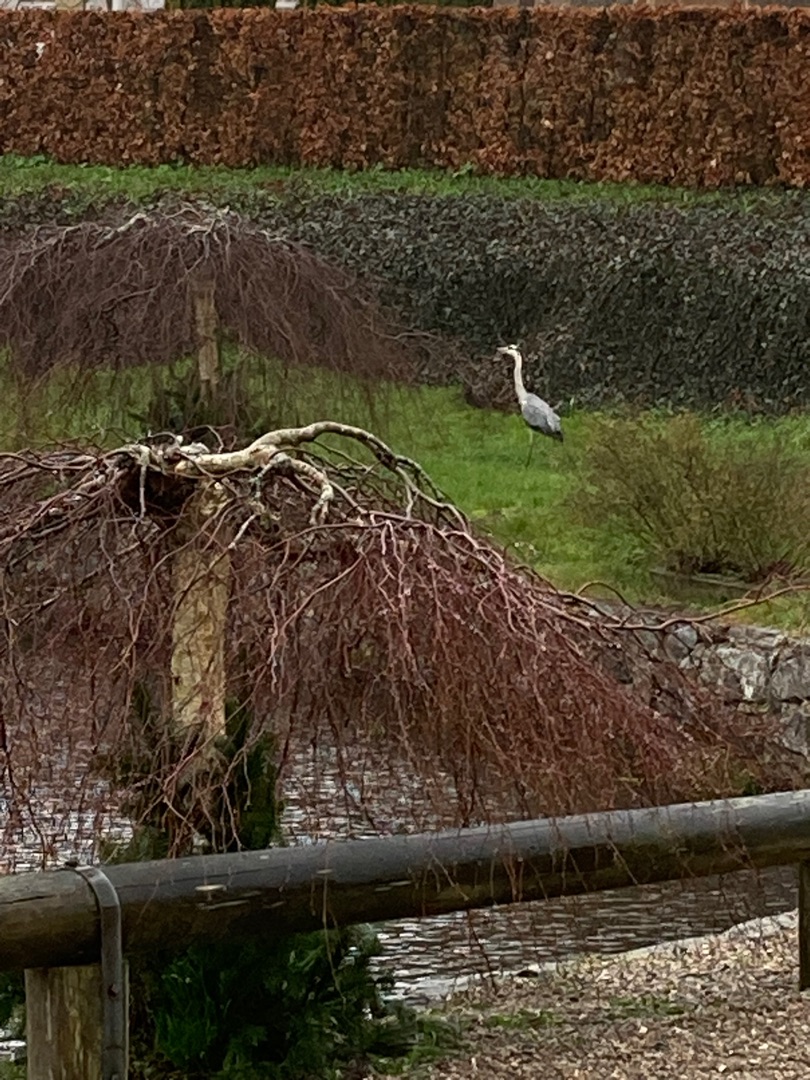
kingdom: Animalia
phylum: Chordata
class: Aves
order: Pelecaniformes
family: Ardeidae
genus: Ardea
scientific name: Ardea cinerea
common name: Fiskehejre
